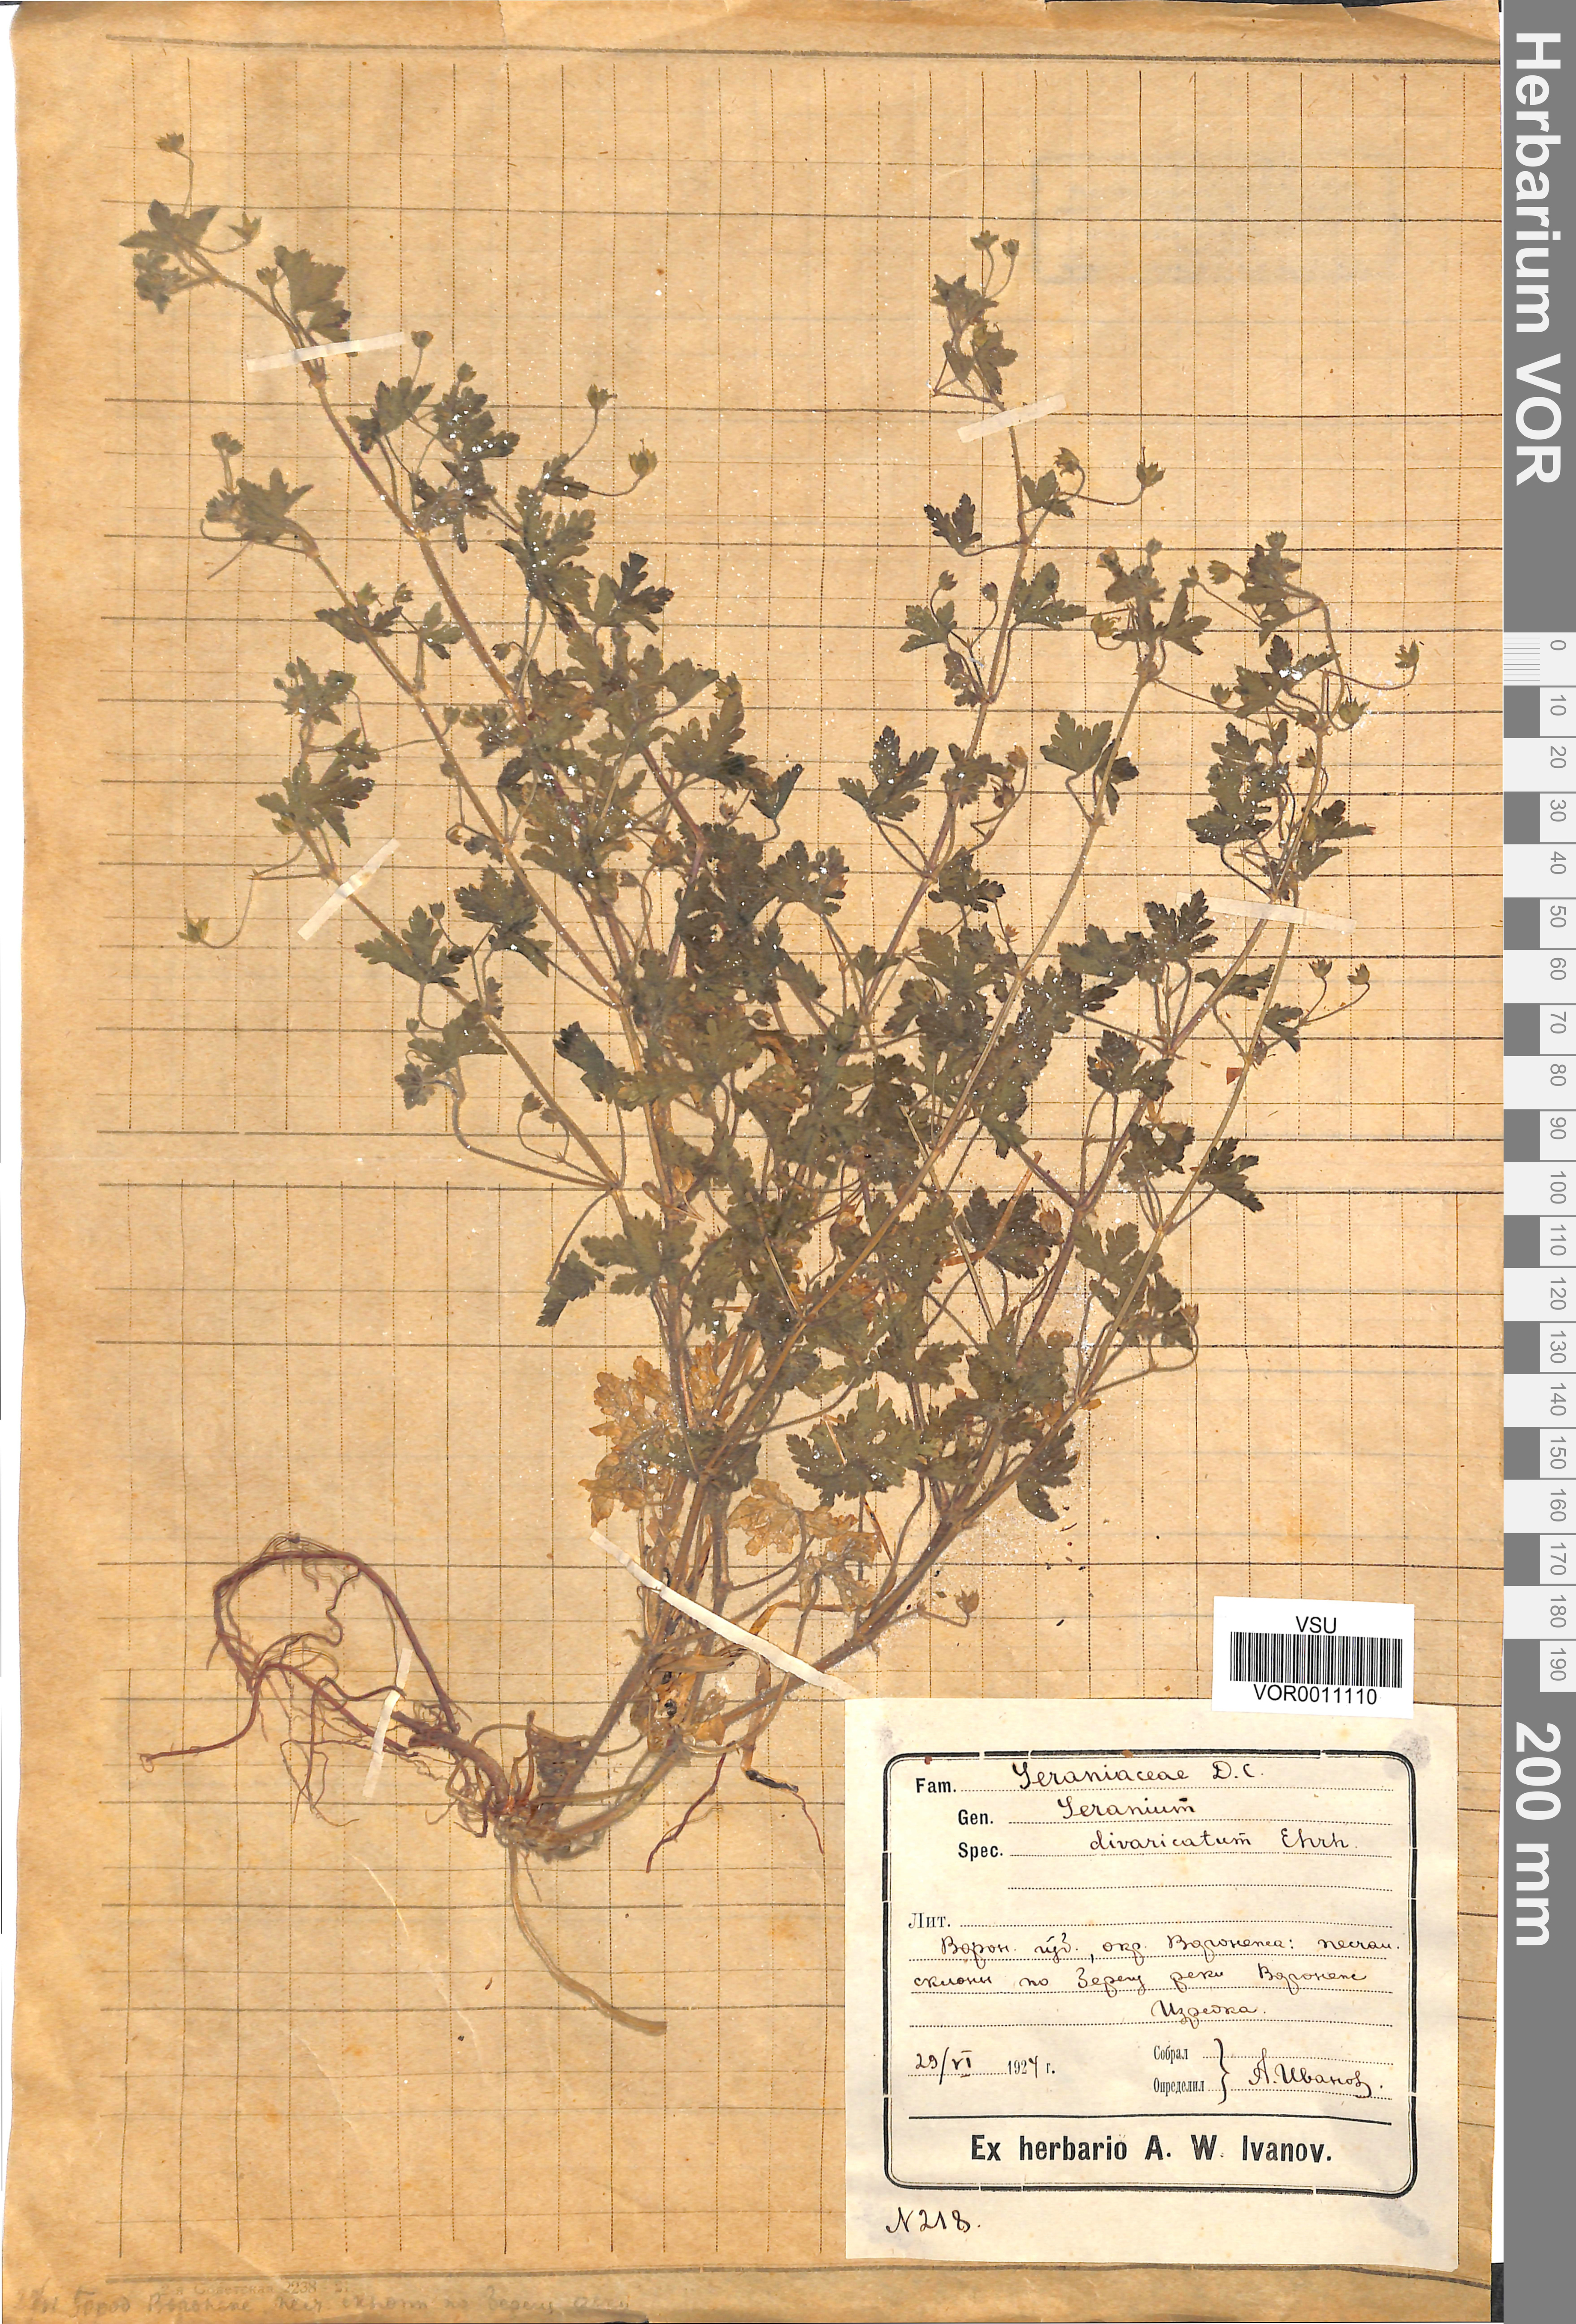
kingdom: Plantae
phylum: Tracheophyta
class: Magnoliopsida
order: Geraniales
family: Geraniaceae
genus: Geranium
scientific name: Geranium divaricatum
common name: Spreading crane's-bill
